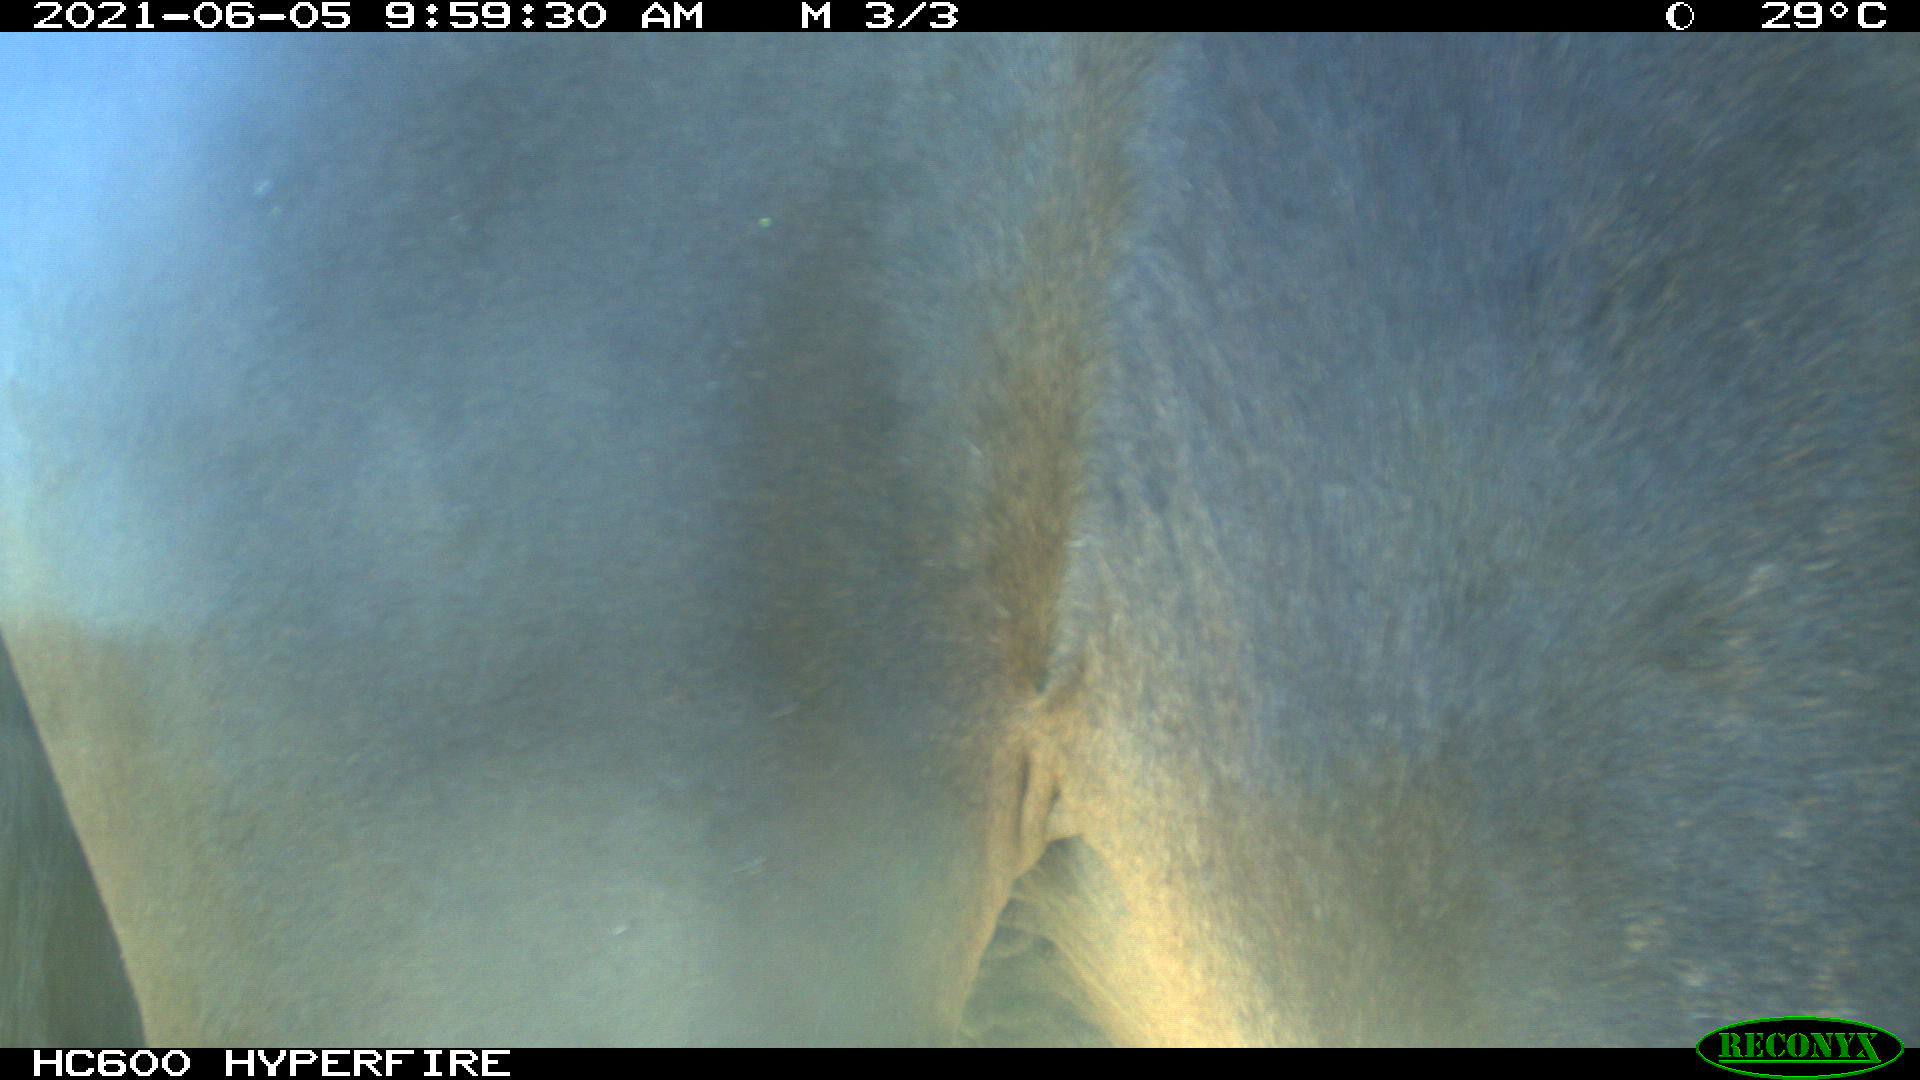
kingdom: Animalia
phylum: Chordata
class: Mammalia
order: Perissodactyla
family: Equidae
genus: Equus
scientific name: Equus caballus
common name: Horse
